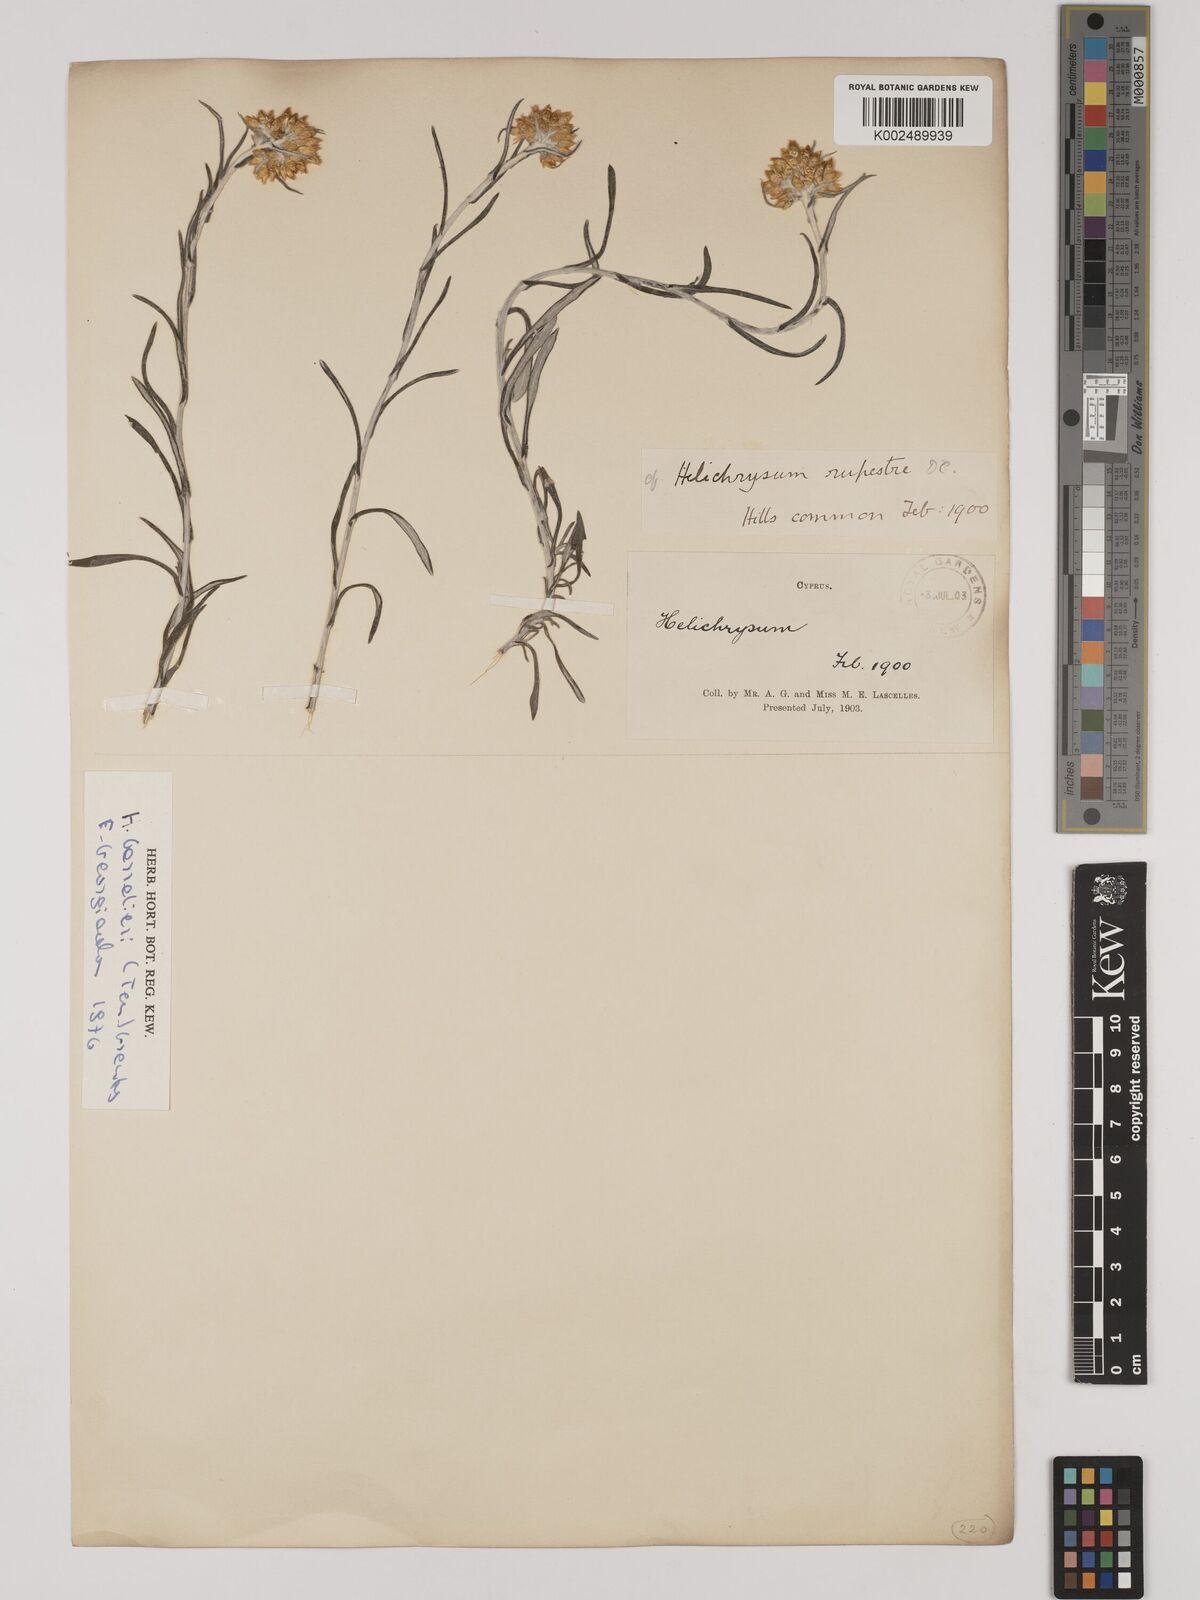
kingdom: Plantae
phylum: Tracheophyta
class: Magnoliopsida
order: Asterales
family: Asteraceae
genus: Helichrysum
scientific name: Helichrysum pendulum
